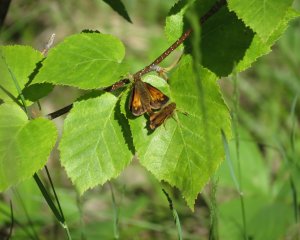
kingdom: Animalia
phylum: Arthropoda
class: Insecta
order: Lepidoptera
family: Hesperiidae
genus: Lon
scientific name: Lon hobomok
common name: Hobomok Skipper
